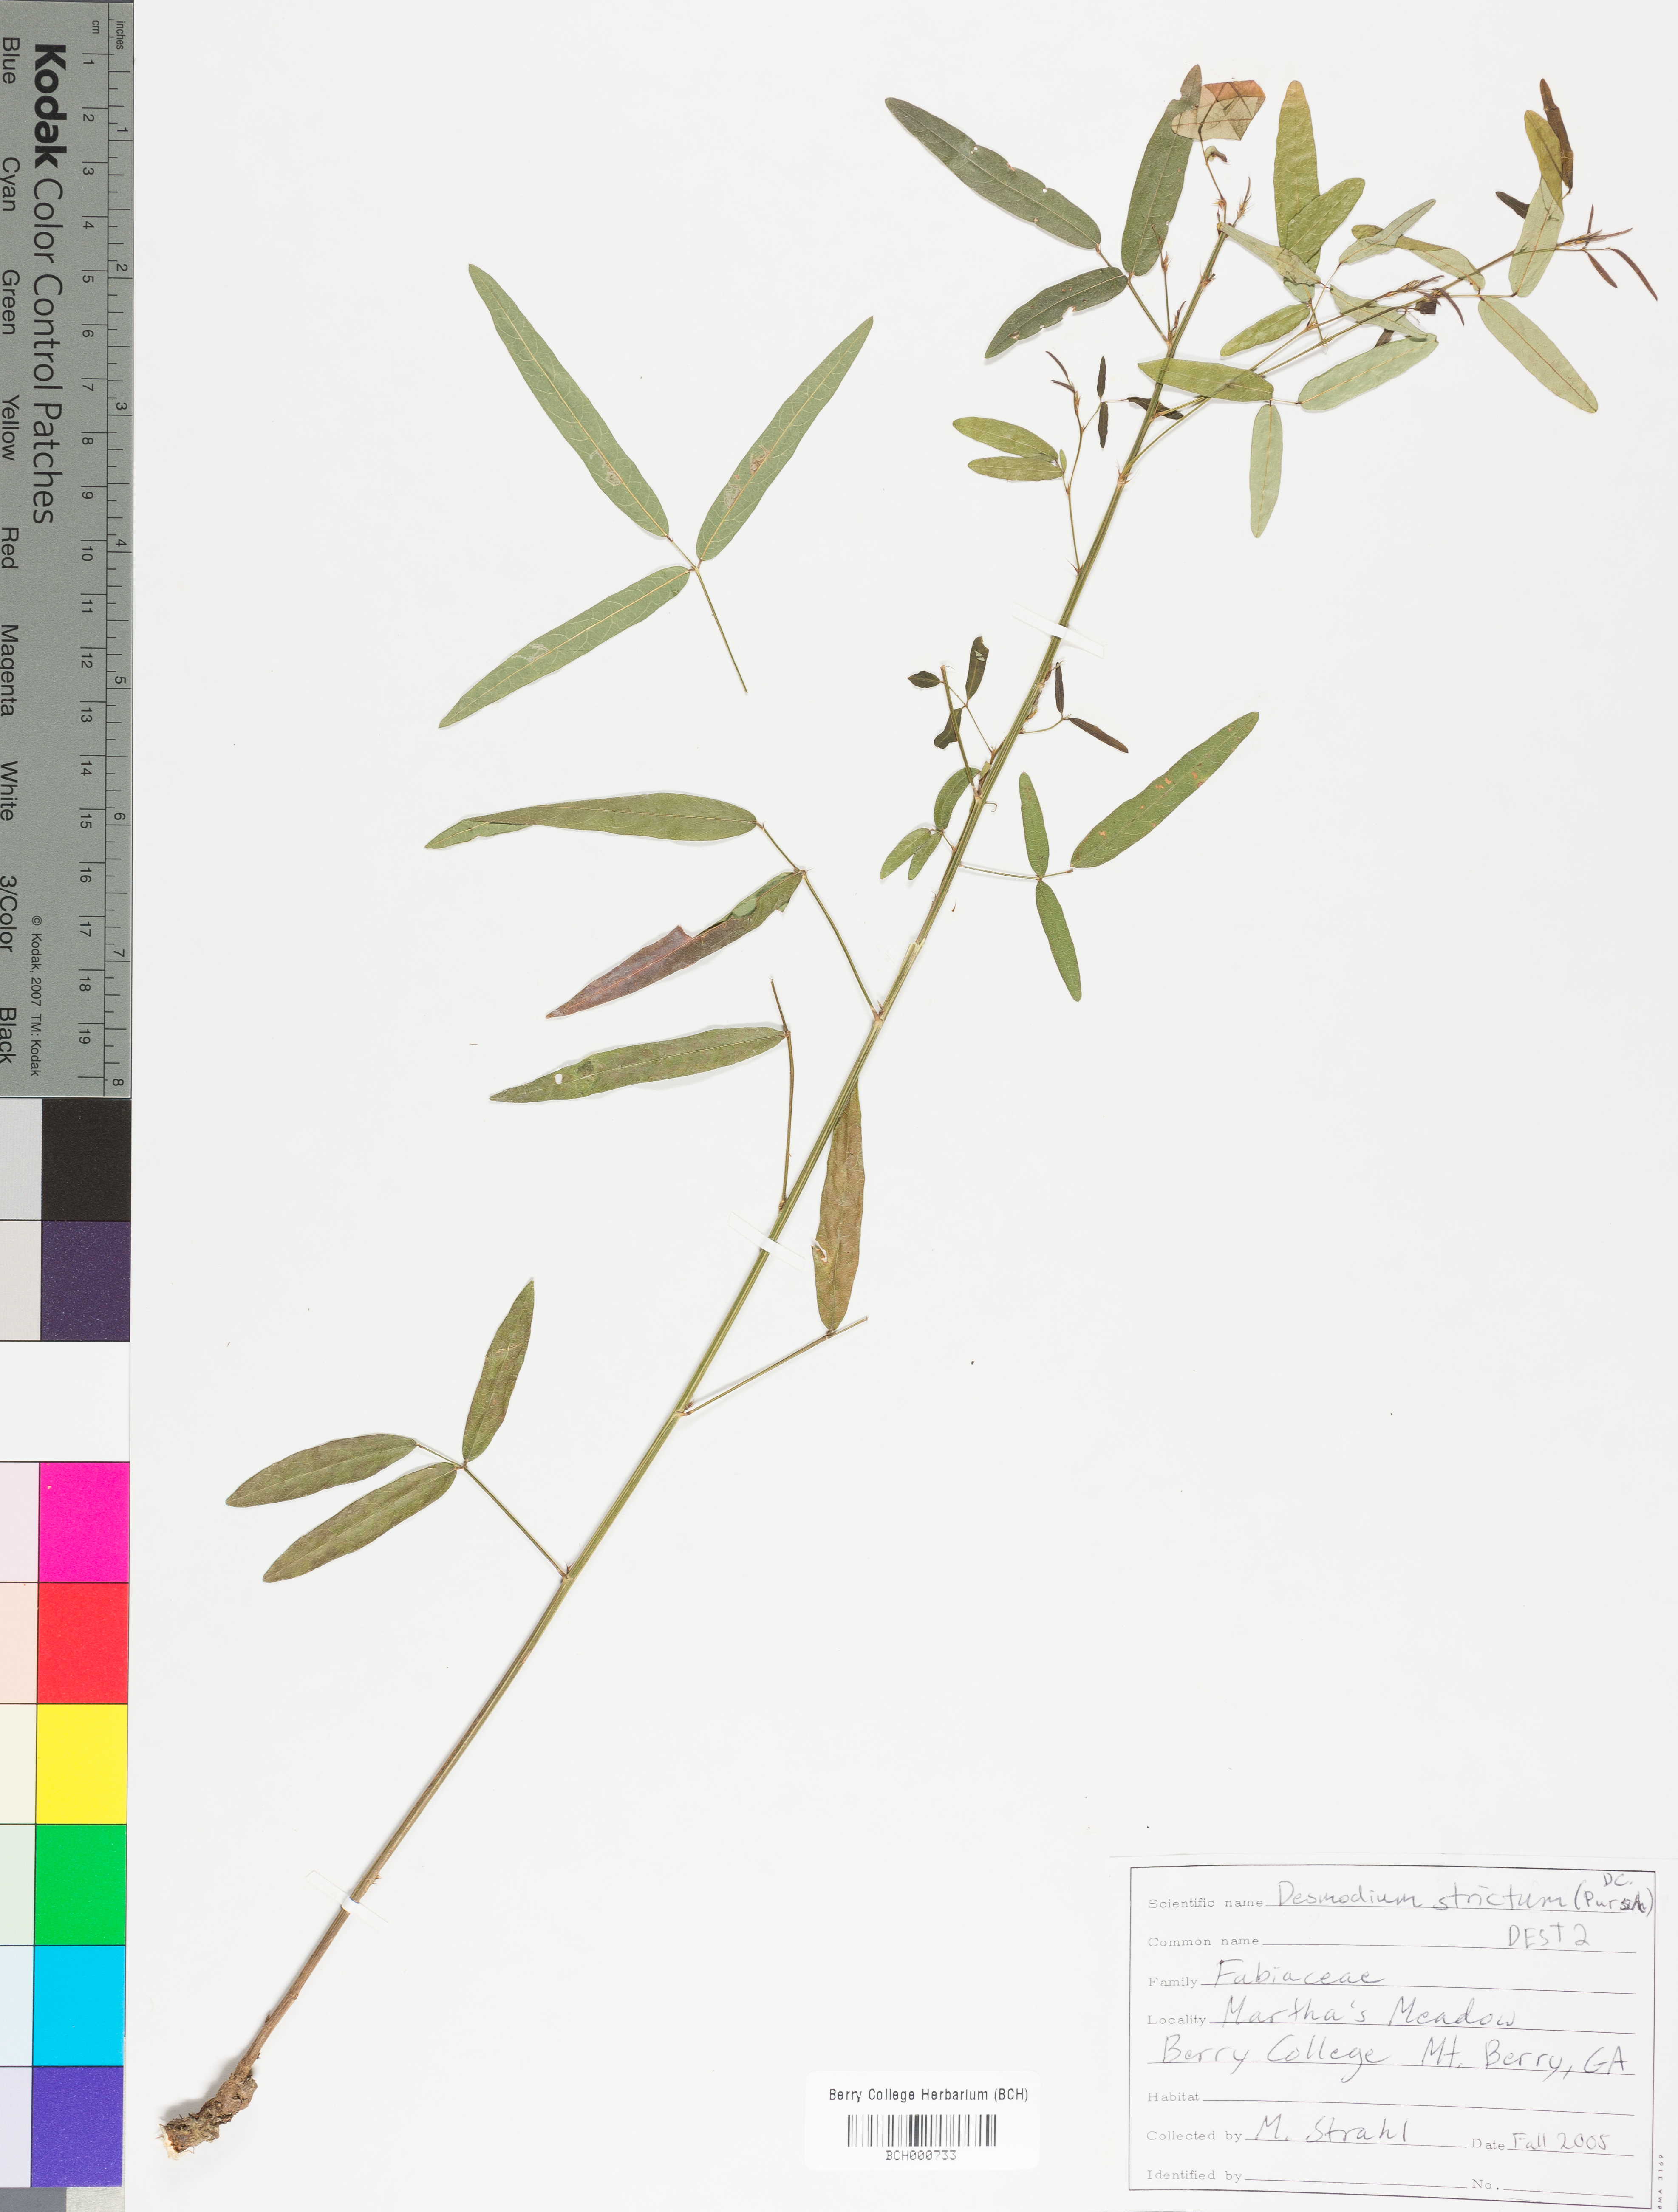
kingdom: Plantae
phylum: Tracheophyta
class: Magnoliopsida
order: Fabales
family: Fabaceae
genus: Desmodium
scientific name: Desmodium strictum
